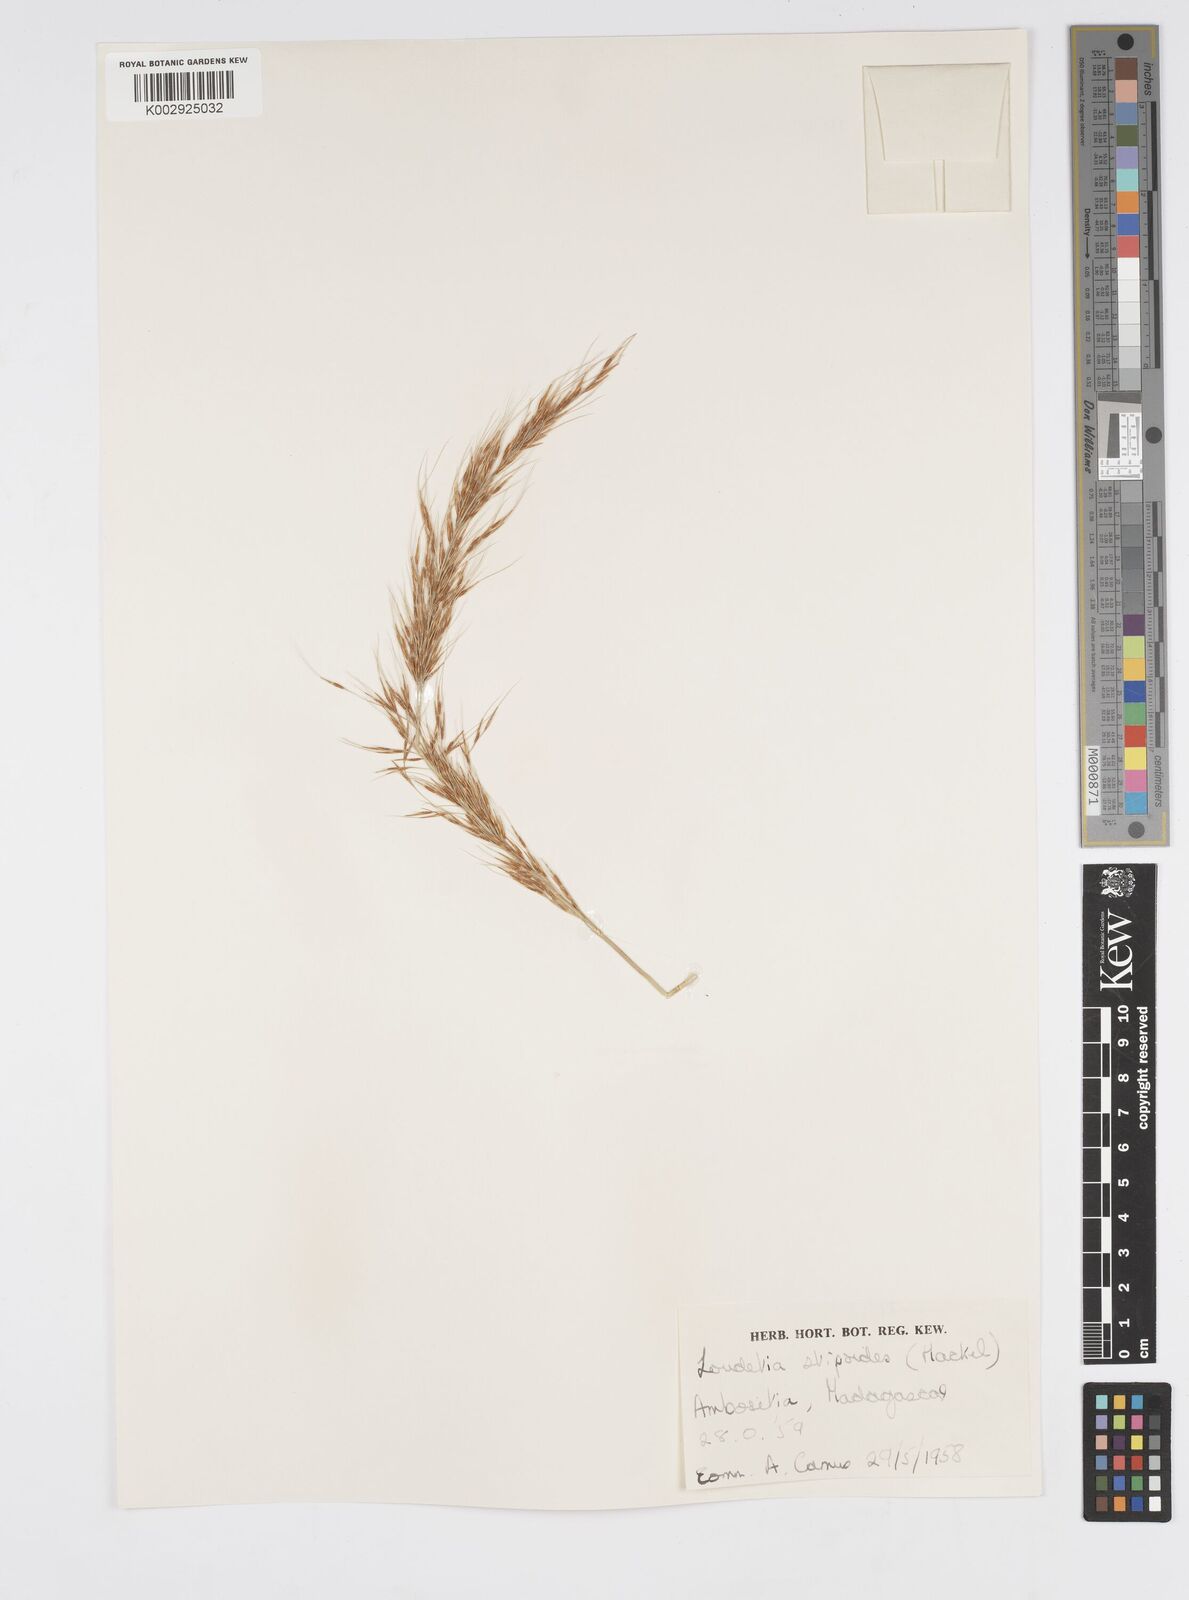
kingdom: Plantae
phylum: Tracheophyta
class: Liliopsida
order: Poales
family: Poaceae
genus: Loudetia
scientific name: Loudetia
